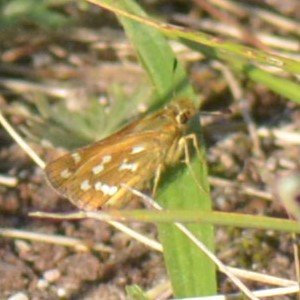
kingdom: Animalia
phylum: Arthropoda
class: Insecta
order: Lepidoptera
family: Hesperiidae
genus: Hesperia
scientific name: Hesperia comma
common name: Common Branded Skipper
